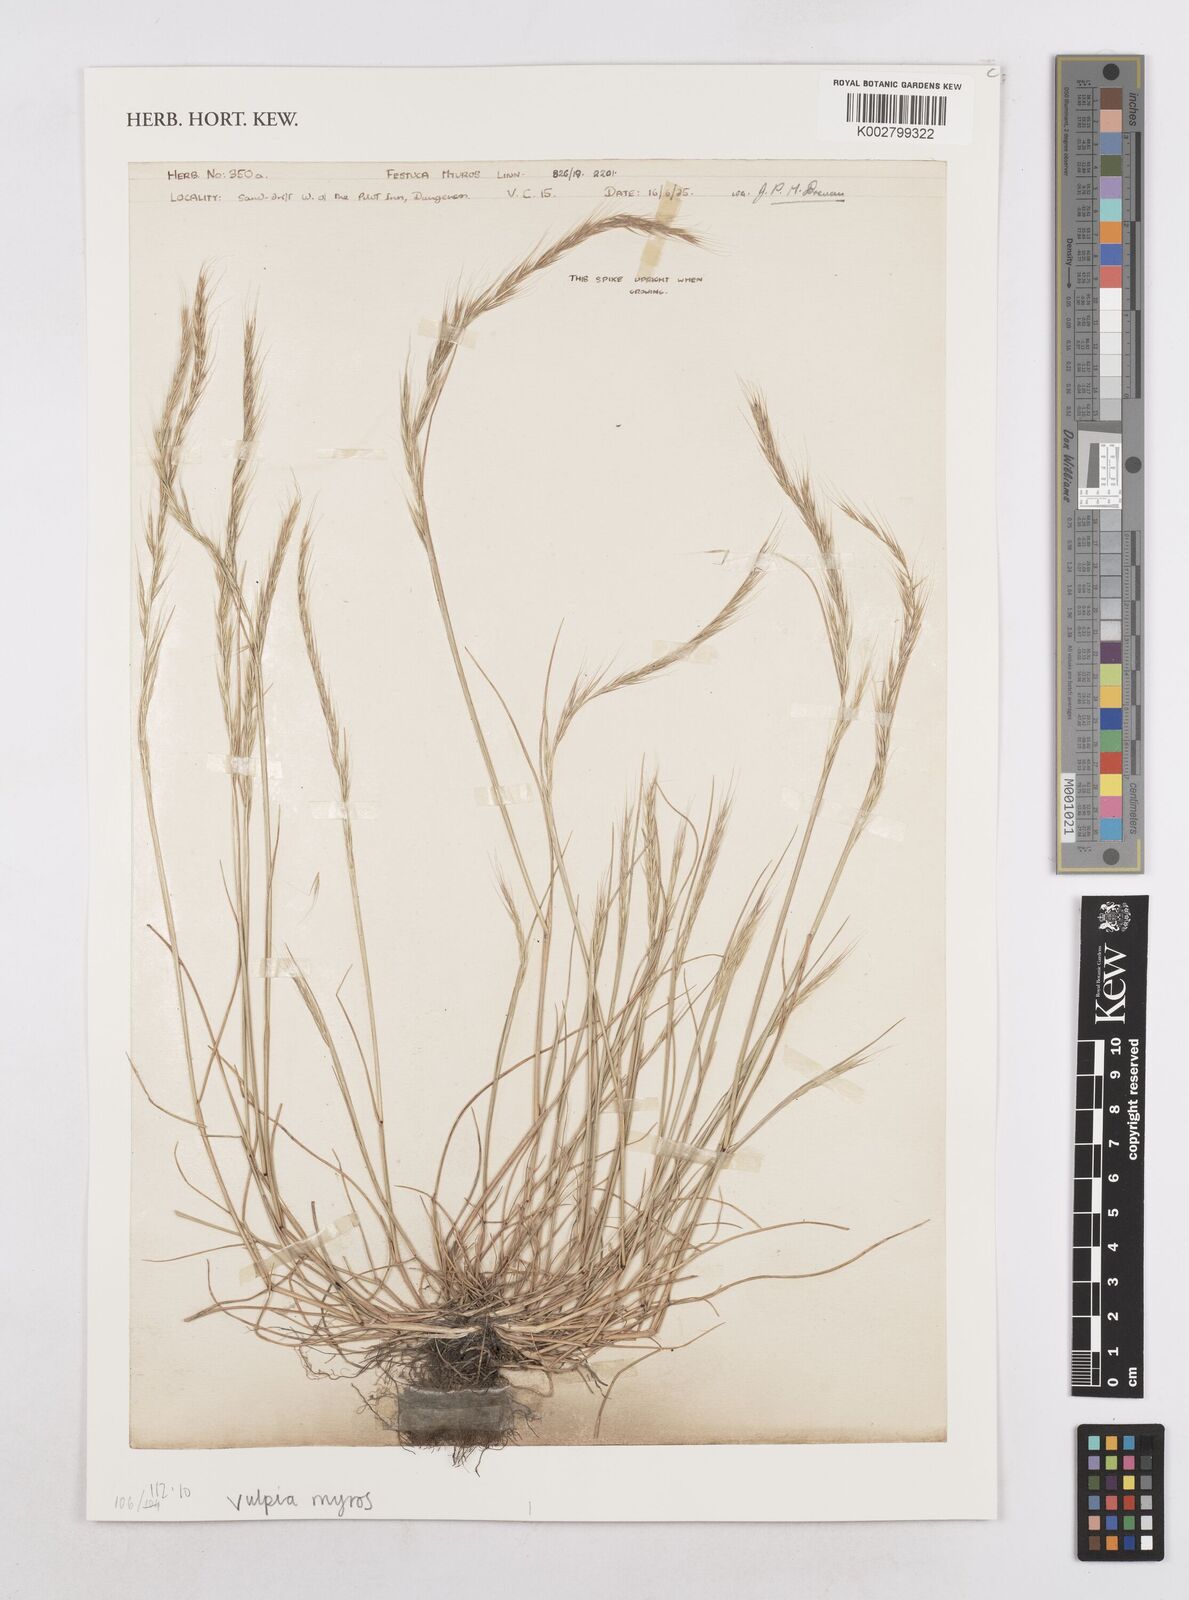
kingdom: Plantae
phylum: Tracheophyta
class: Liliopsida
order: Poales
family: Poaceae
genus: Festuca
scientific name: Festuca myuros
